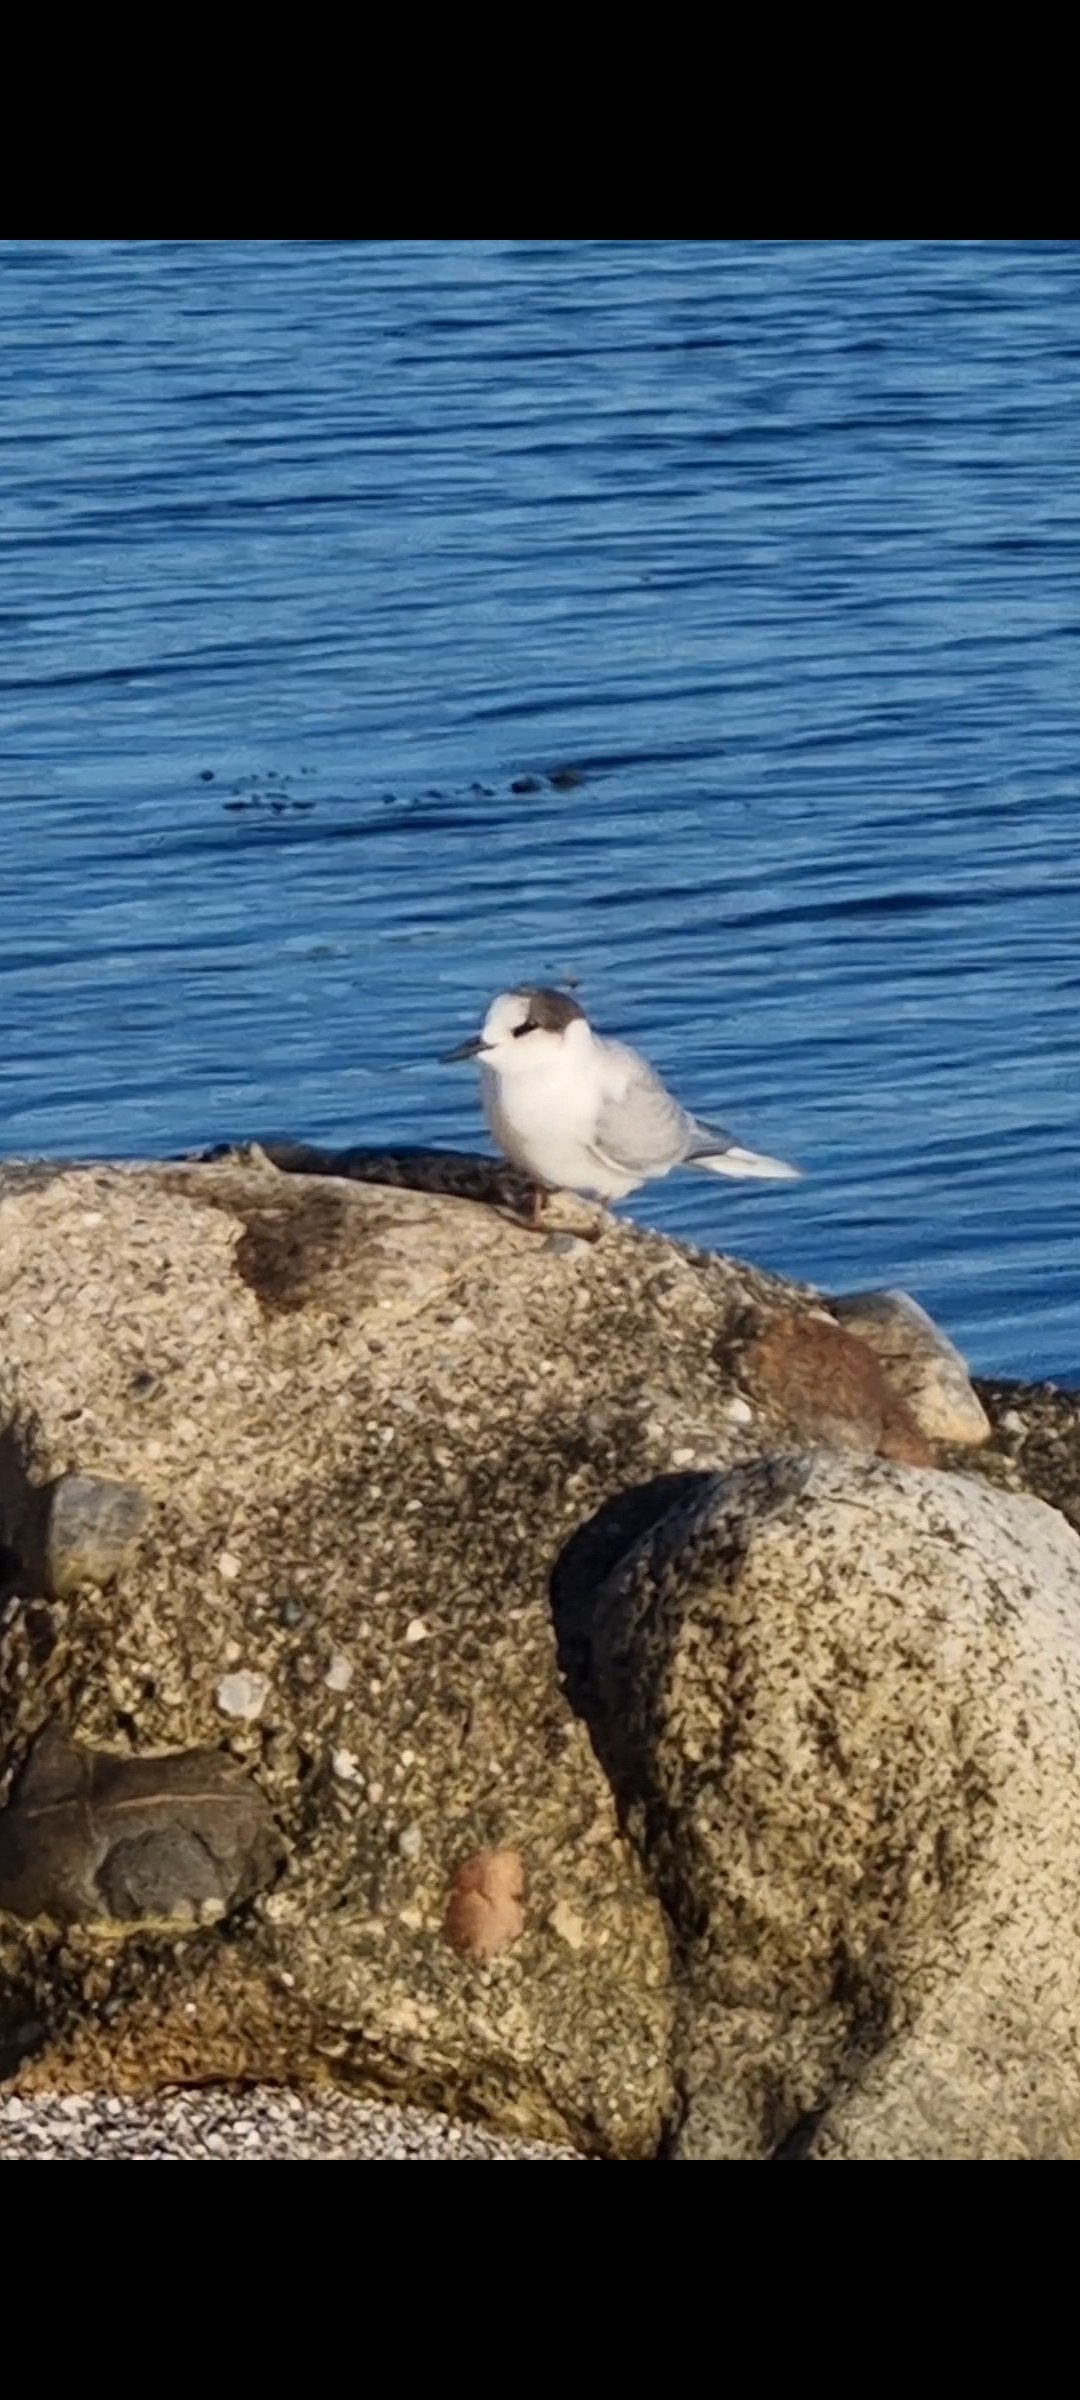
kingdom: Animalia
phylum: Chordata
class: Aves
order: Charadriiformes
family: Laridae
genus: Sterna
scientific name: Sterna paradisaea
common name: Havterne
